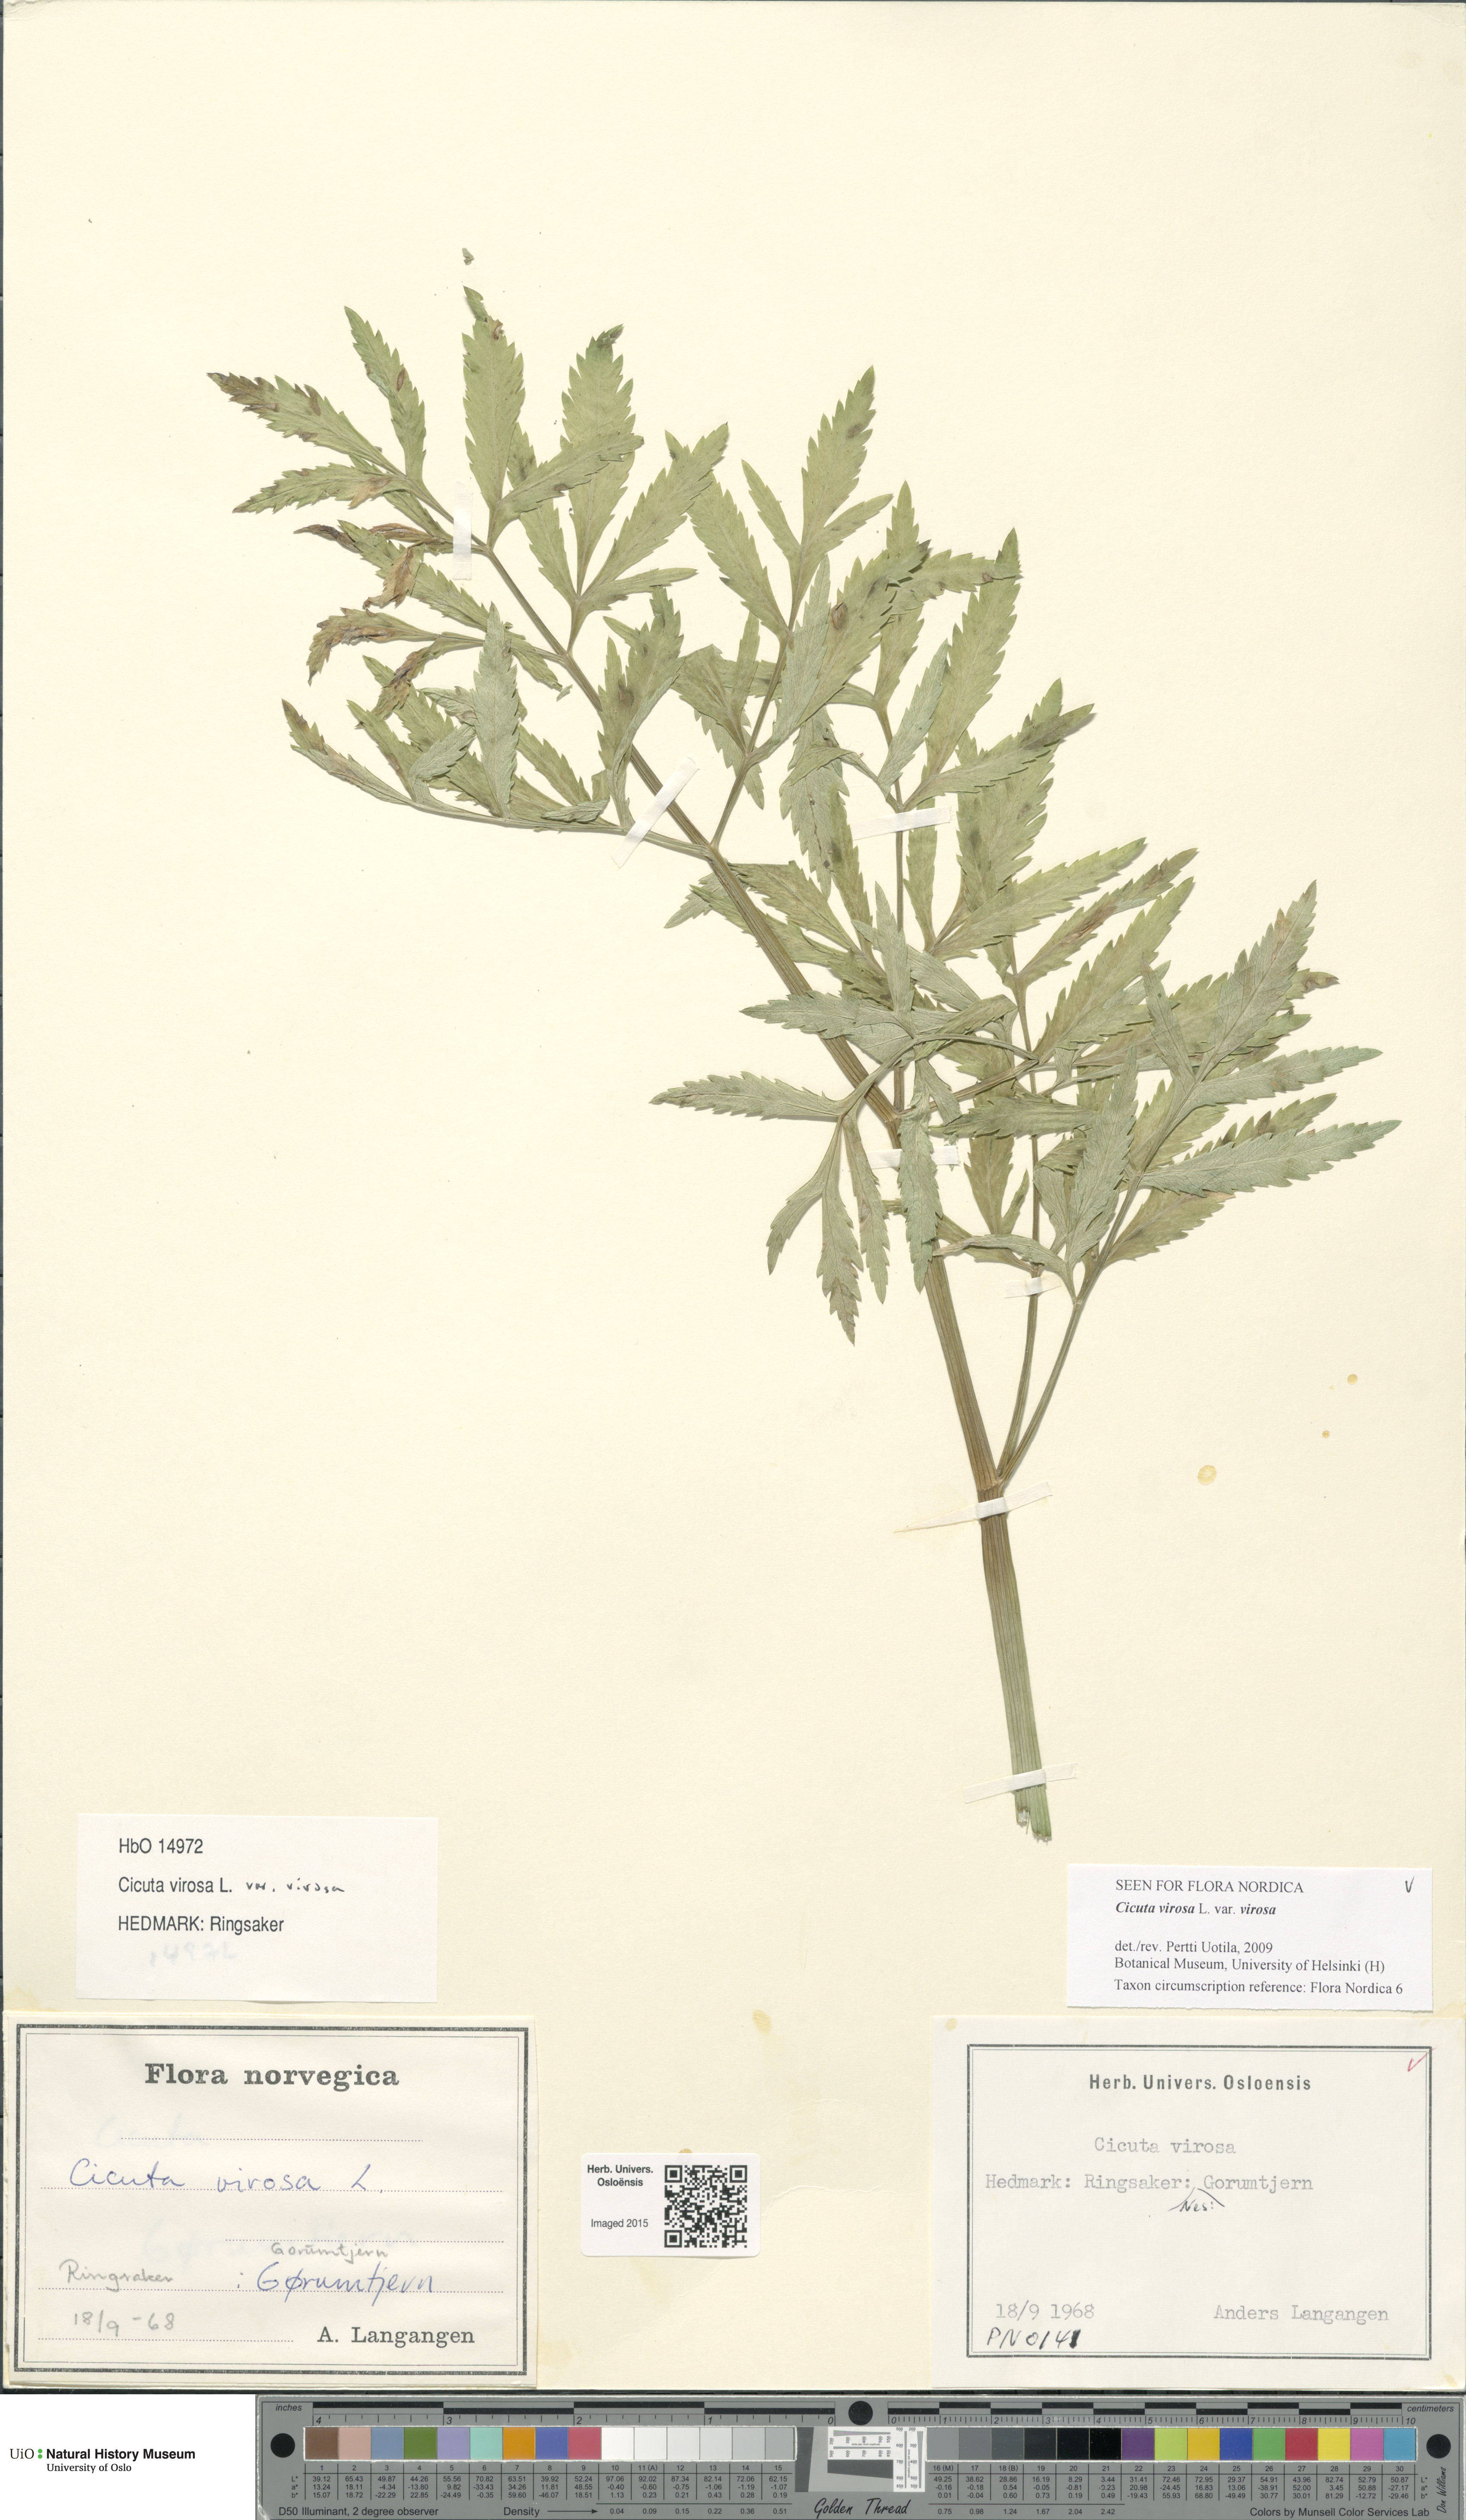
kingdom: Plantae
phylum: Tracheophyta
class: Magnoliopsida
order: Apiales
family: Apiaceae
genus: Cicuta
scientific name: Cicuta virosa
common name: Cowbane
